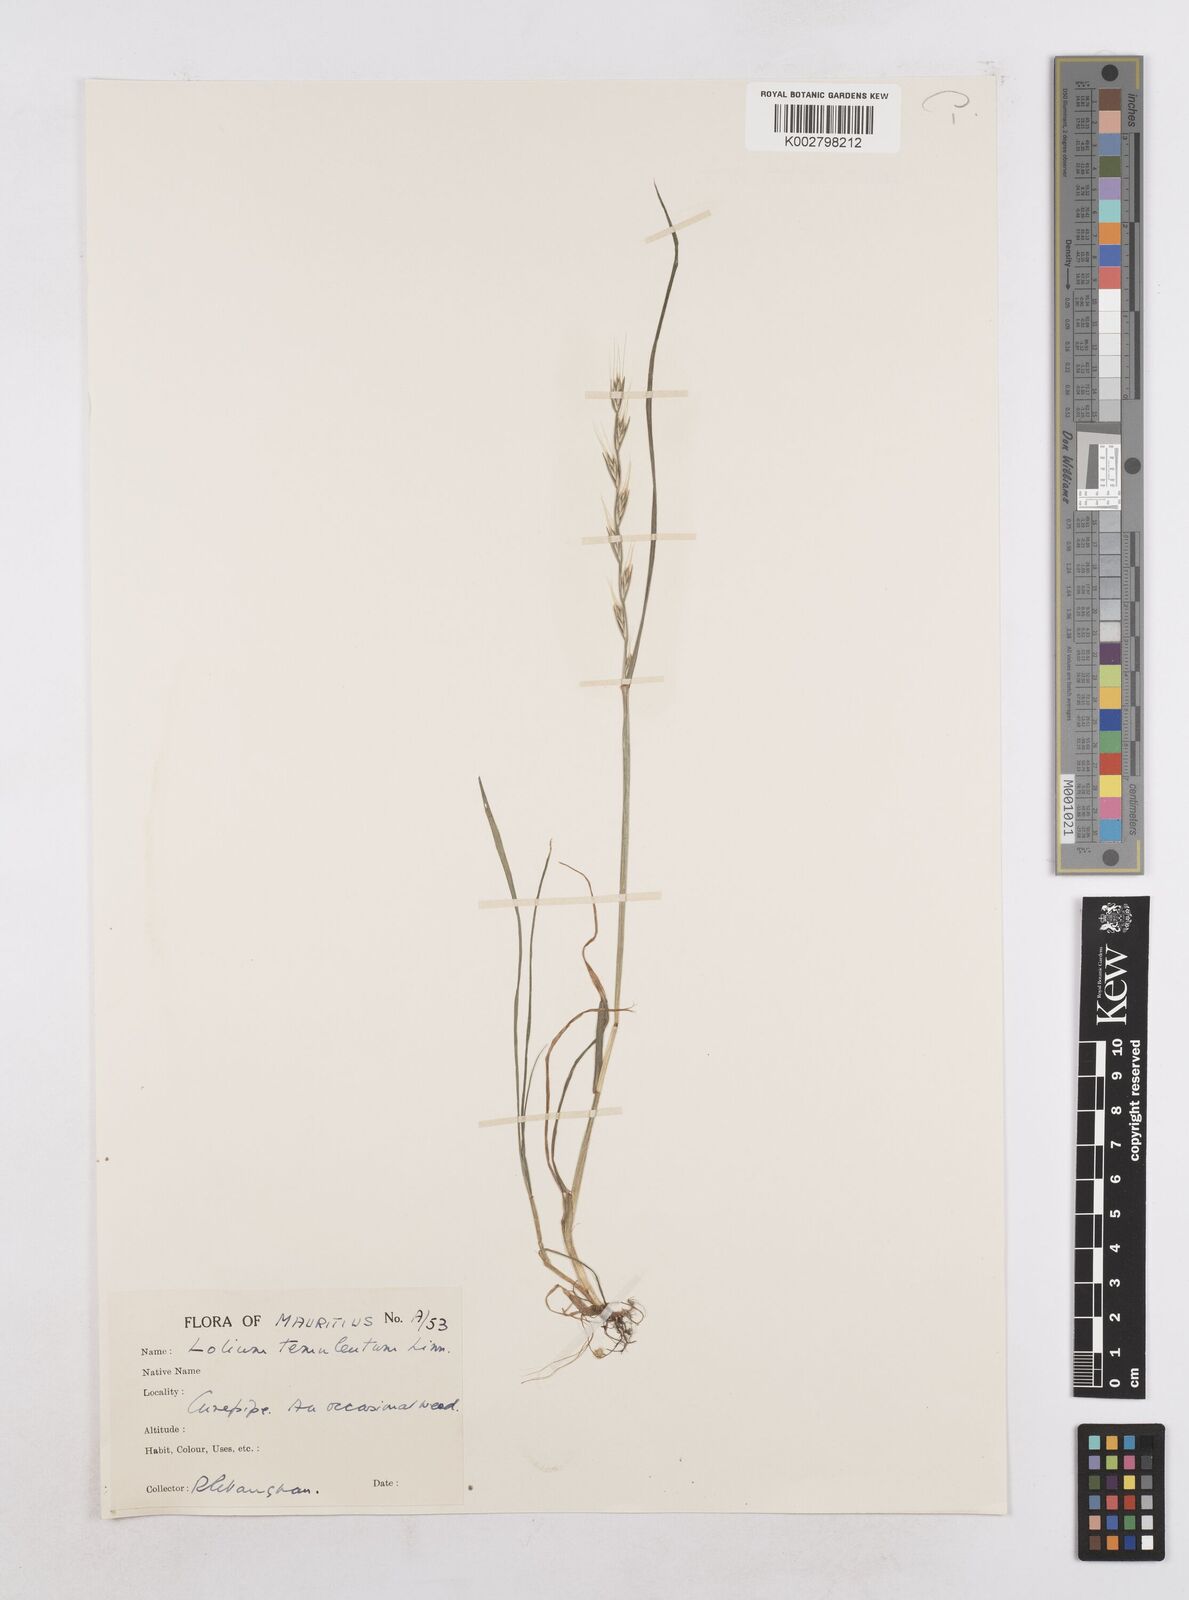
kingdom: Plantae
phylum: Tracheophyta
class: Liliopsida
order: Poales
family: Poaceae
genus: Lolium
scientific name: Lolium temulentum
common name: Darnel
